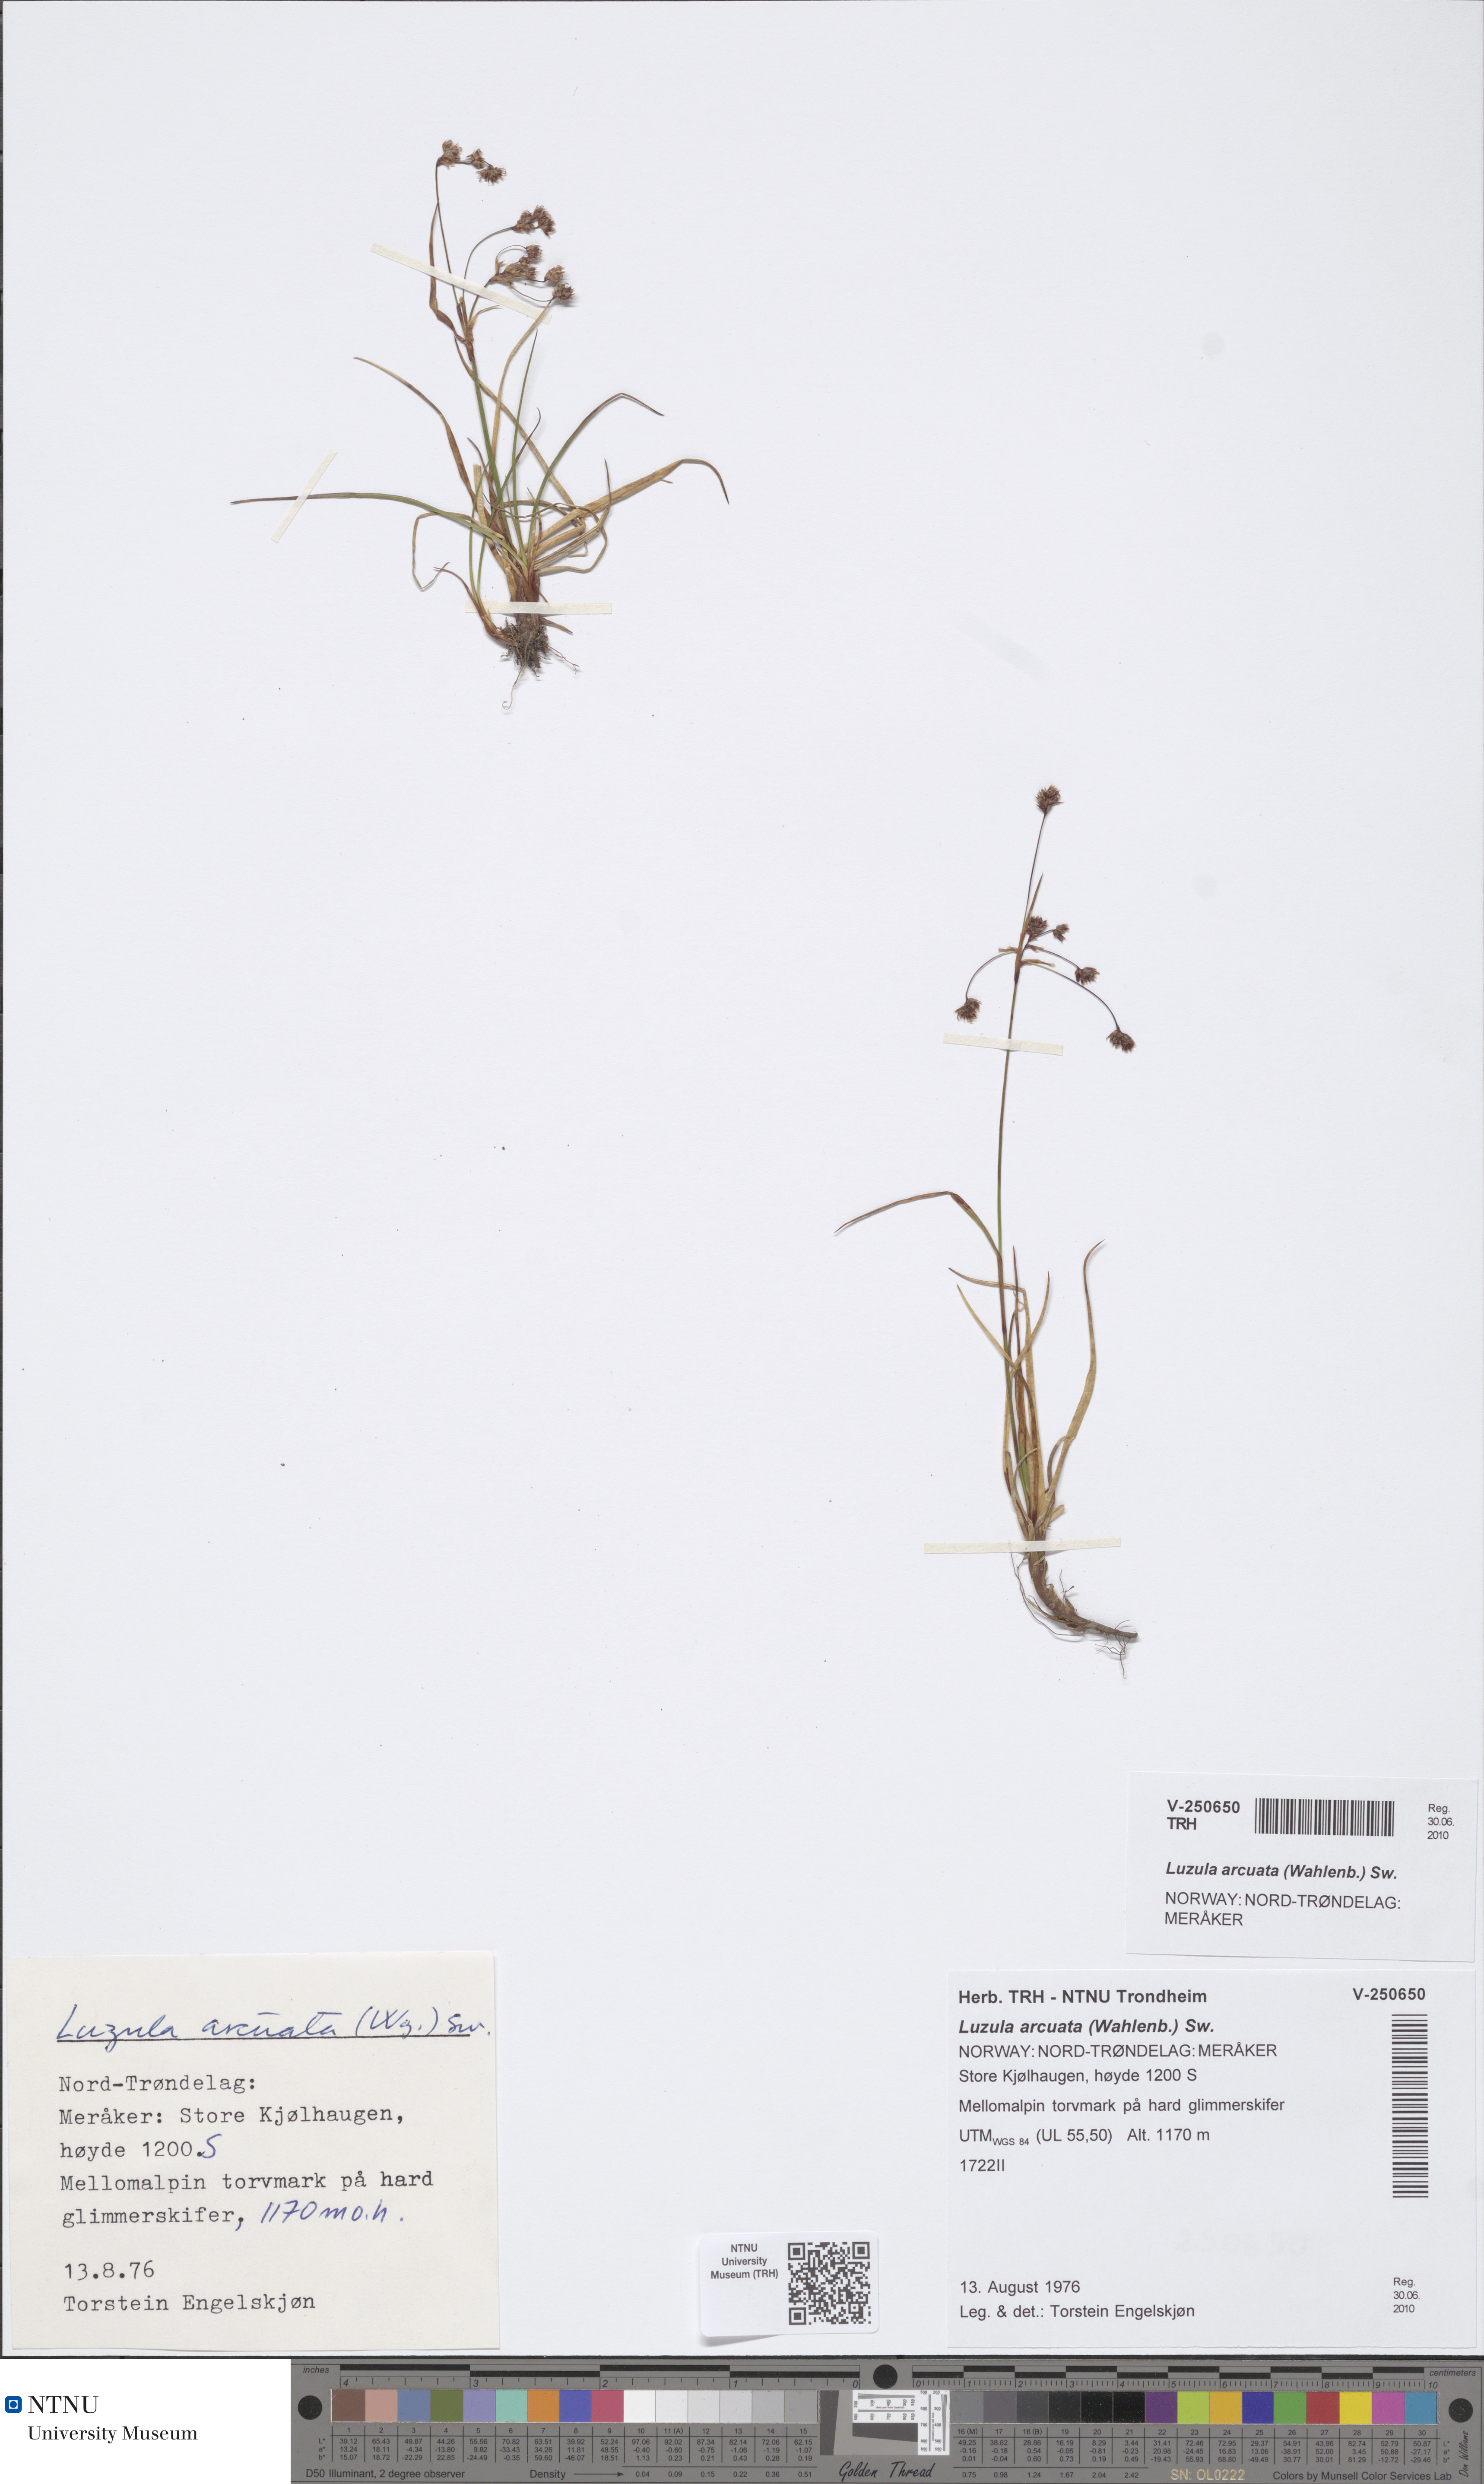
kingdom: Plantae
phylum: Tracheophyta
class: Liliopsida
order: Poales
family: Juncaceae
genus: Luzula
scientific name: Luzula arcuata
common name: Curved wood-rush
